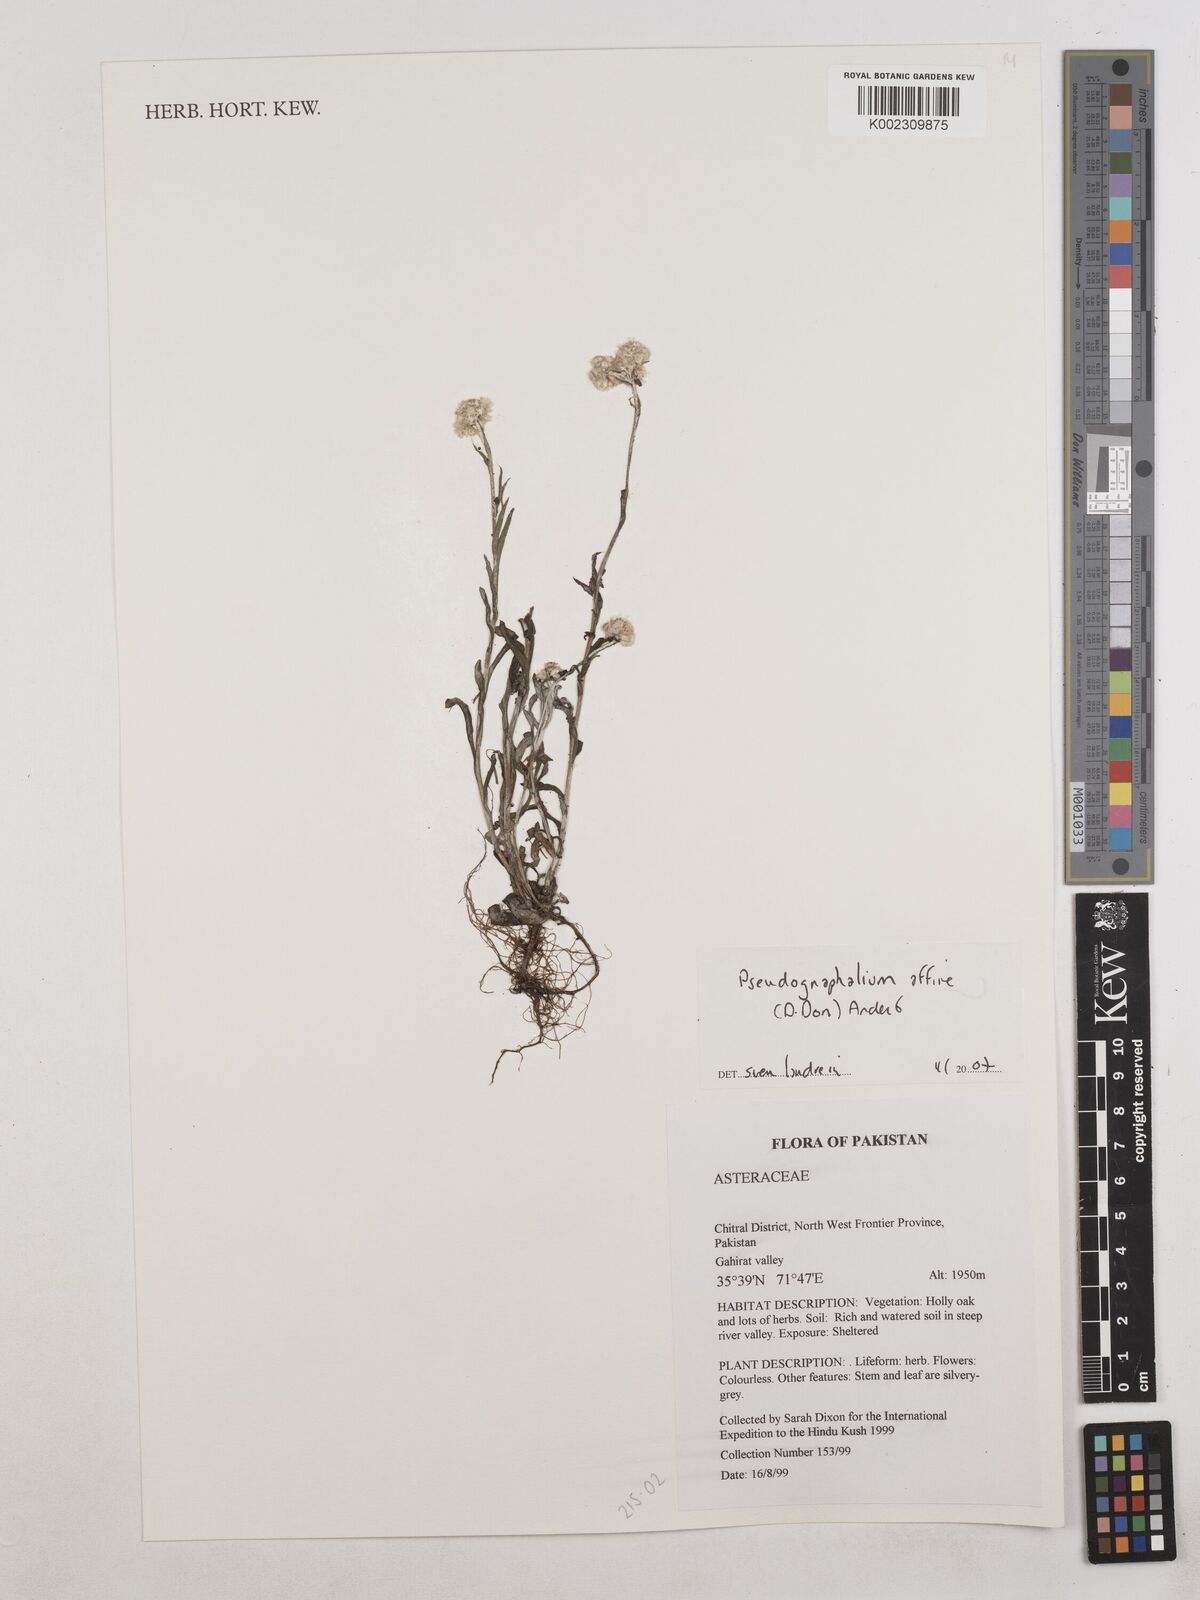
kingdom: Plantae
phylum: Tracheophyta
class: Magnoliopsida
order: Asterales
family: Asteraceae
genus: Pseudognaphalium
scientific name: Pseudognaphalium affine
